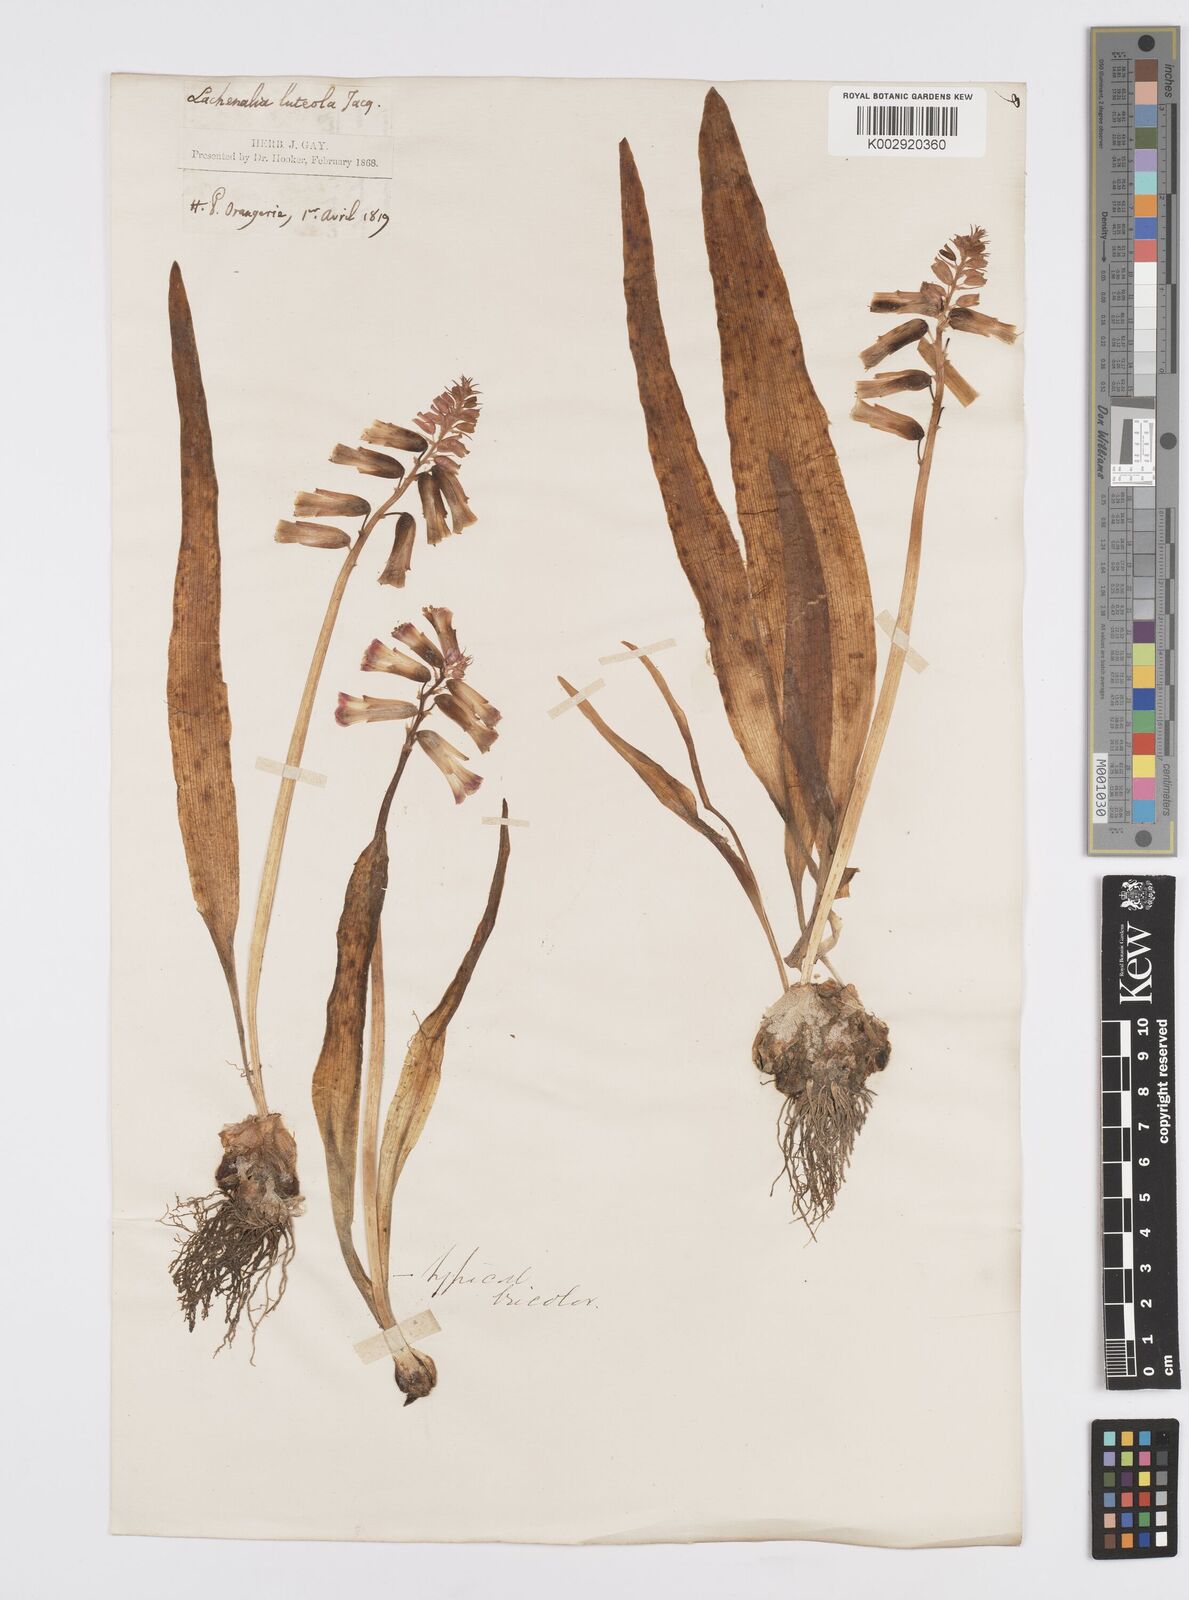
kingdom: Plantae
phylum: Tracheophyta
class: Liliopsida
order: Asparagales
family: Asparagaceae
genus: Lachenalia
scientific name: Lachenalia aloides
